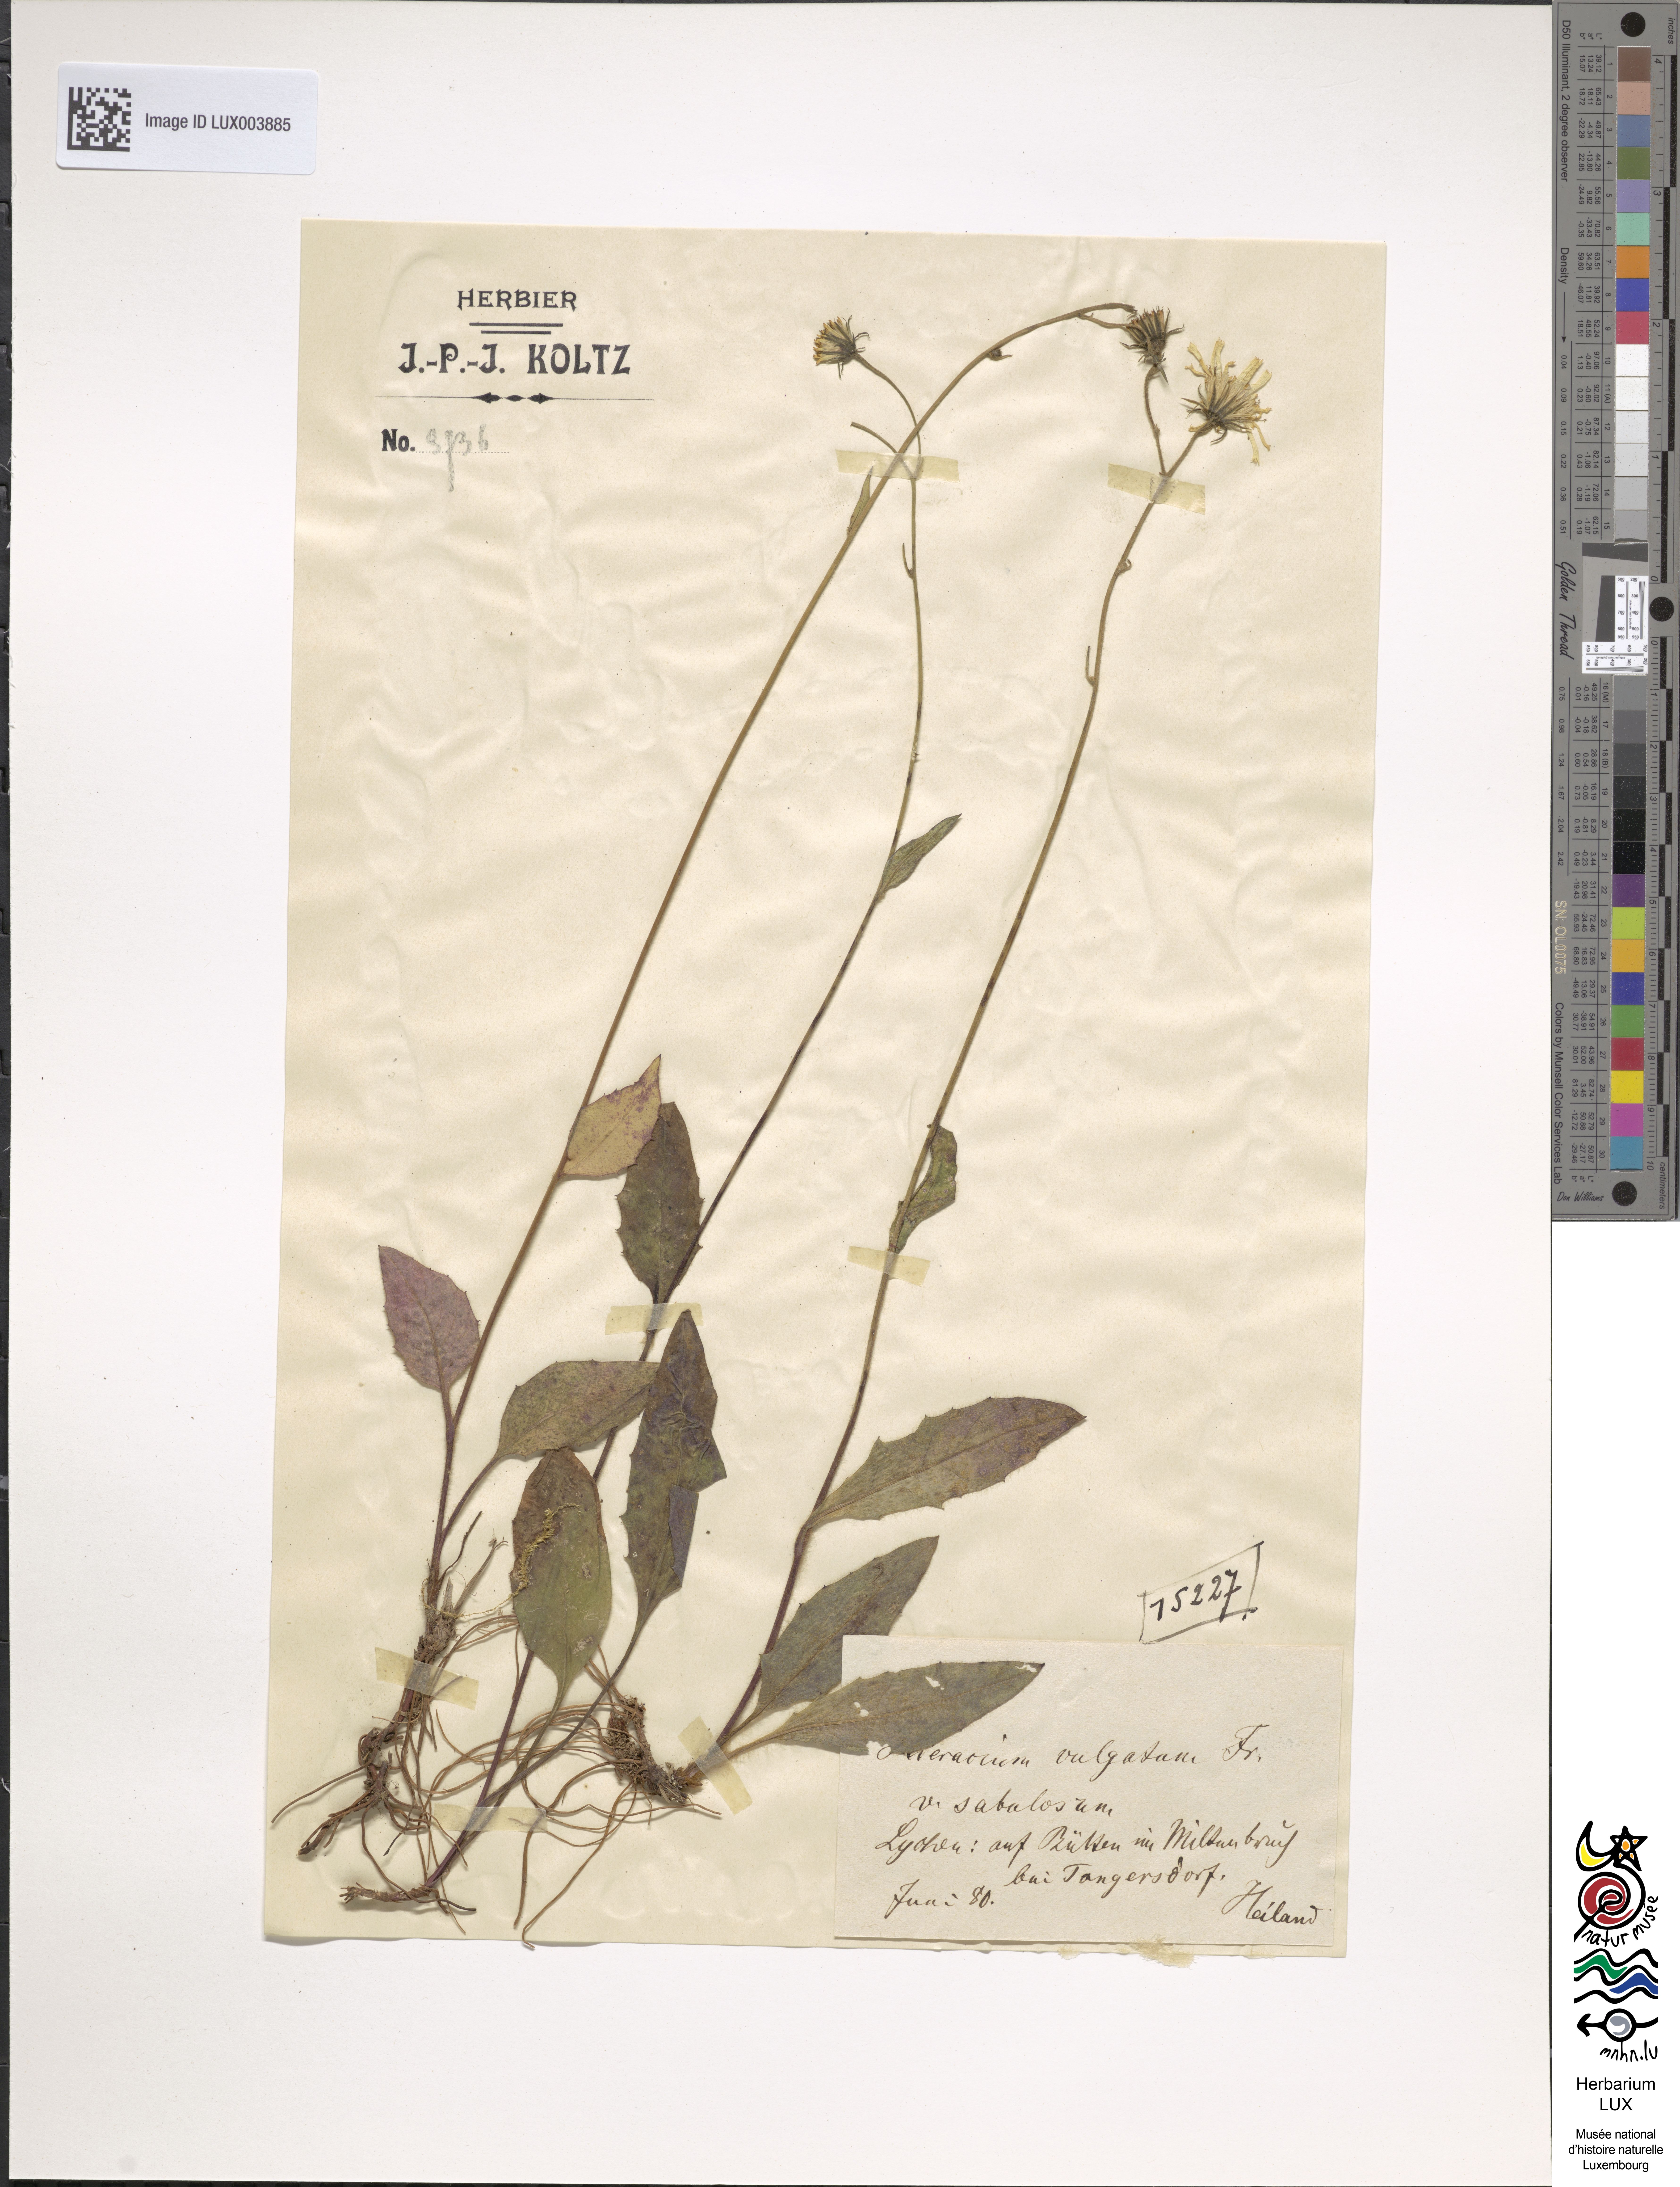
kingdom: Plantae
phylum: Tracheophyta
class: Magnoliopsida
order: Asterales
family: Asteraceae
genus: Hieracium
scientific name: Hieracium lachenalii
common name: Common hawkweed
